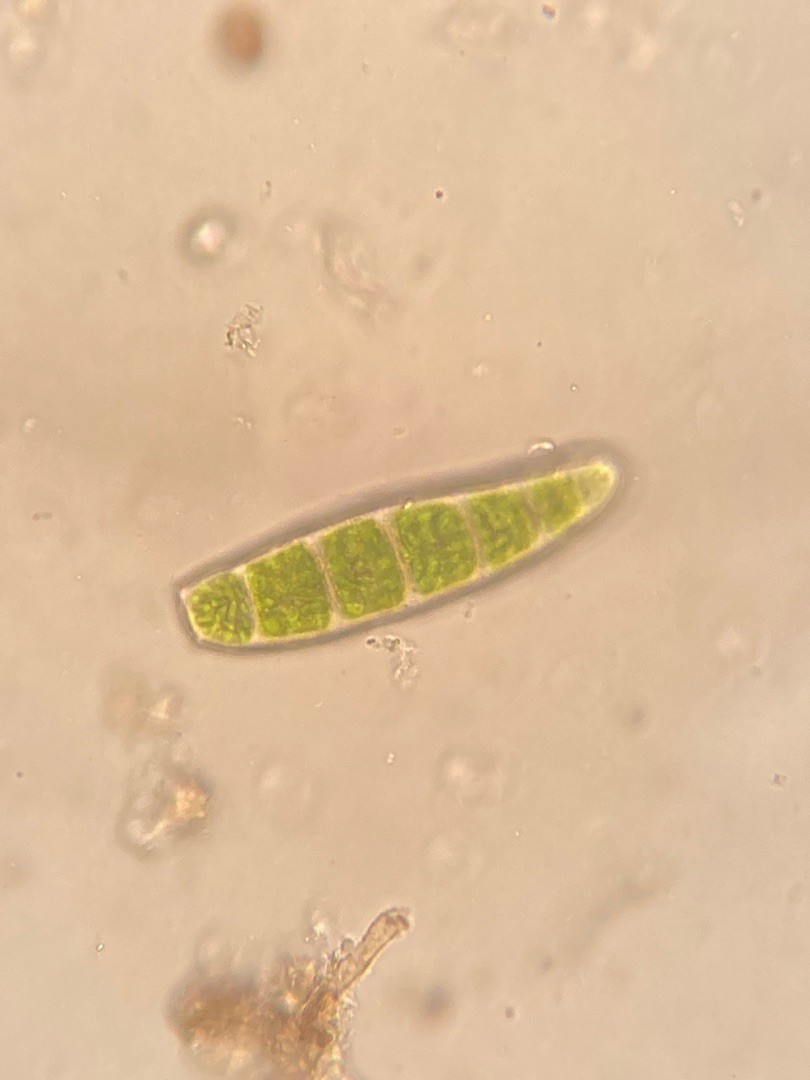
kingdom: Plantae
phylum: Bryophyta
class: Bryopsida
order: Orthotrichales
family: Orthotrichaceae
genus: Zygodon
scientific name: Zygodon conoideus
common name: Tand-køllemos
